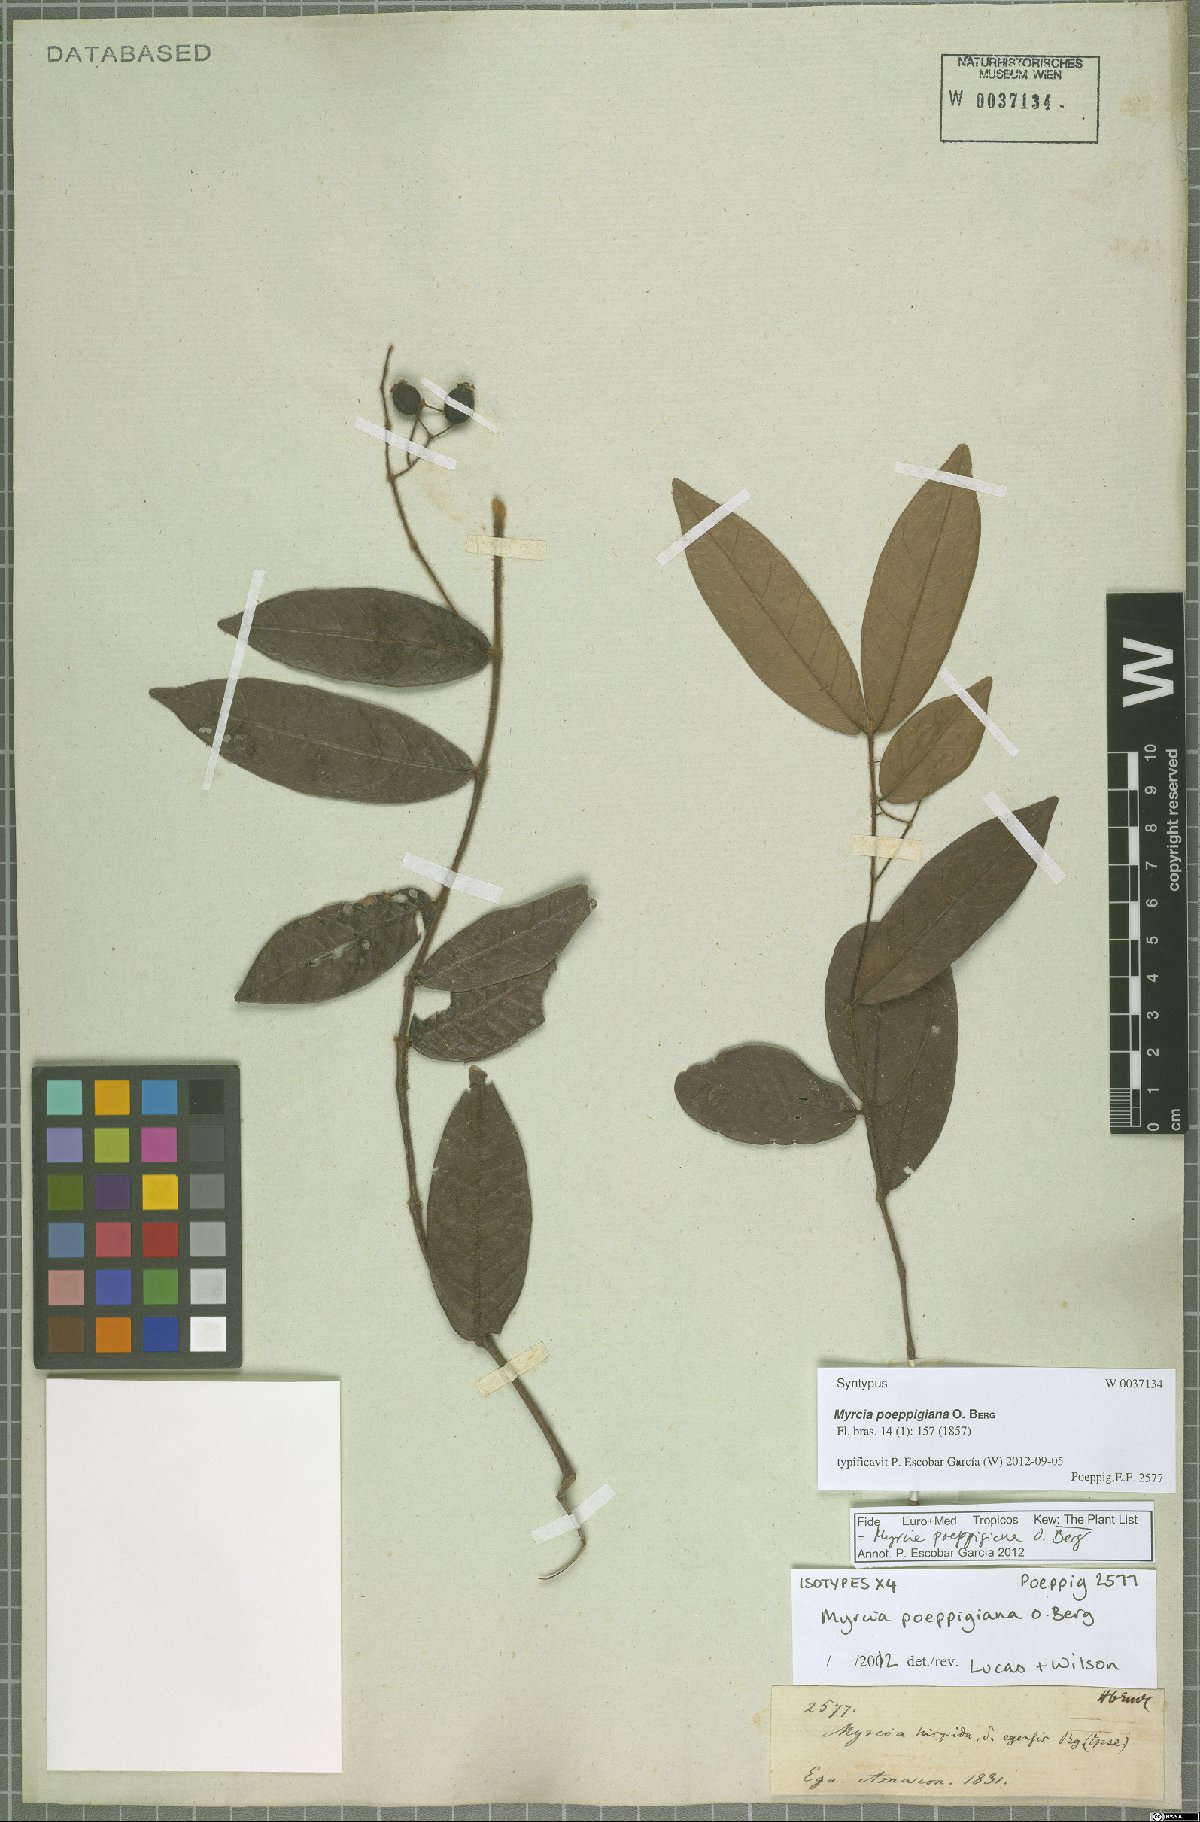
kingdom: Plantae
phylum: Tracheophyta
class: Magnoliopsida
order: Myrtales
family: Myrtaceae
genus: Myrcia
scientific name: Myrcia poeppigiana
